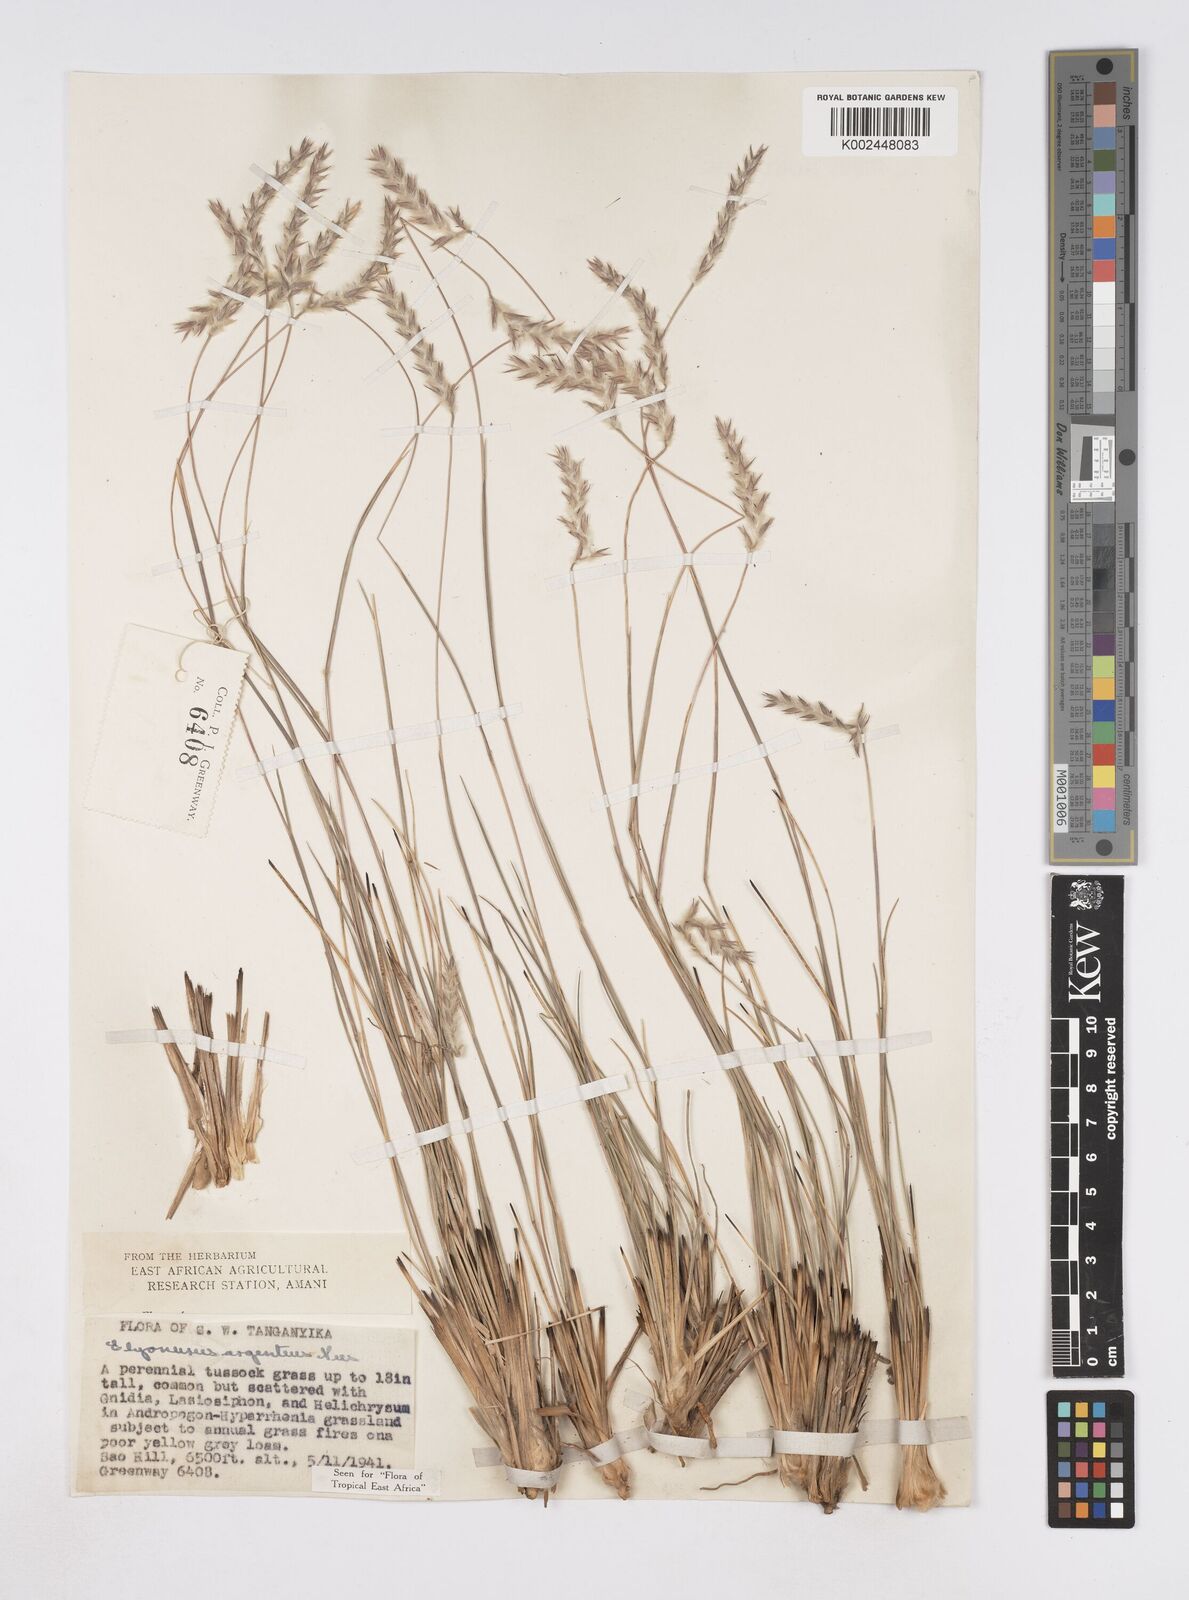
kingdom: Plantae
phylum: Tracheophyta
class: Liliopsida
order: Poales
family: Poaceae
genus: Elionurus
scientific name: Elionurus muticus
